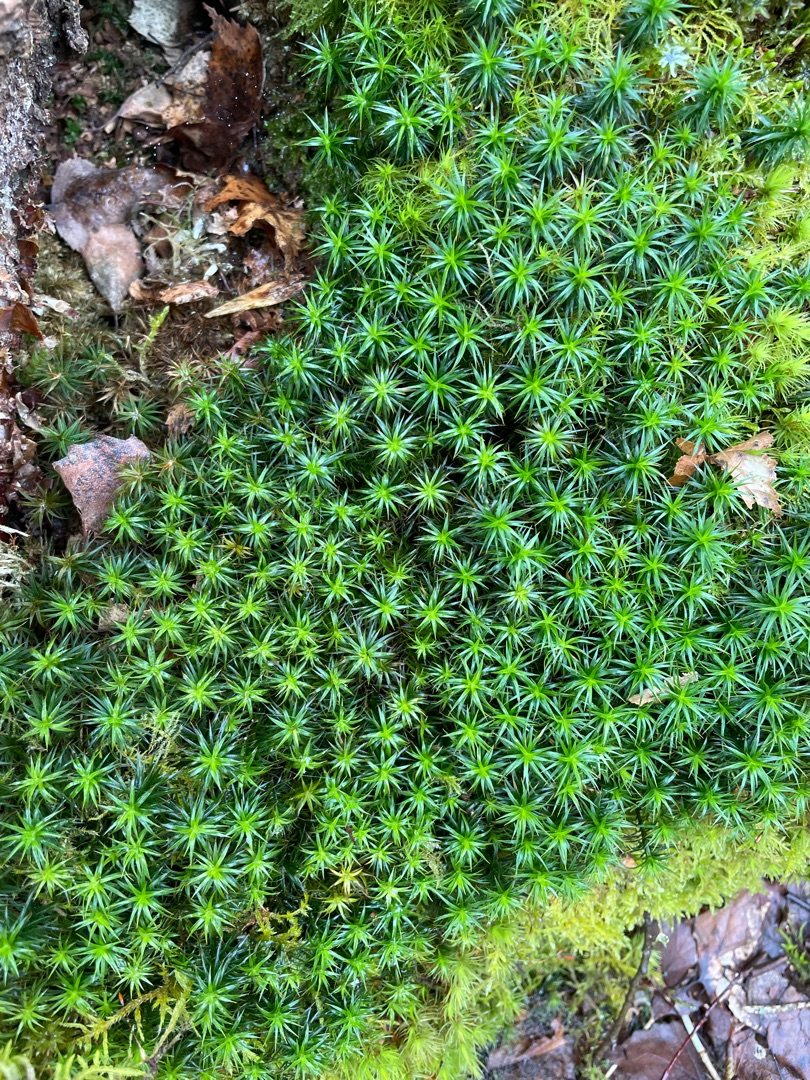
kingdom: Plantae
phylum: Bryophyta
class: Polytrichopsida
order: Polytrichales
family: Polytrichaceae
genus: Polytrichum
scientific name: Polytrichum formosum
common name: Skov-jomfruhår
